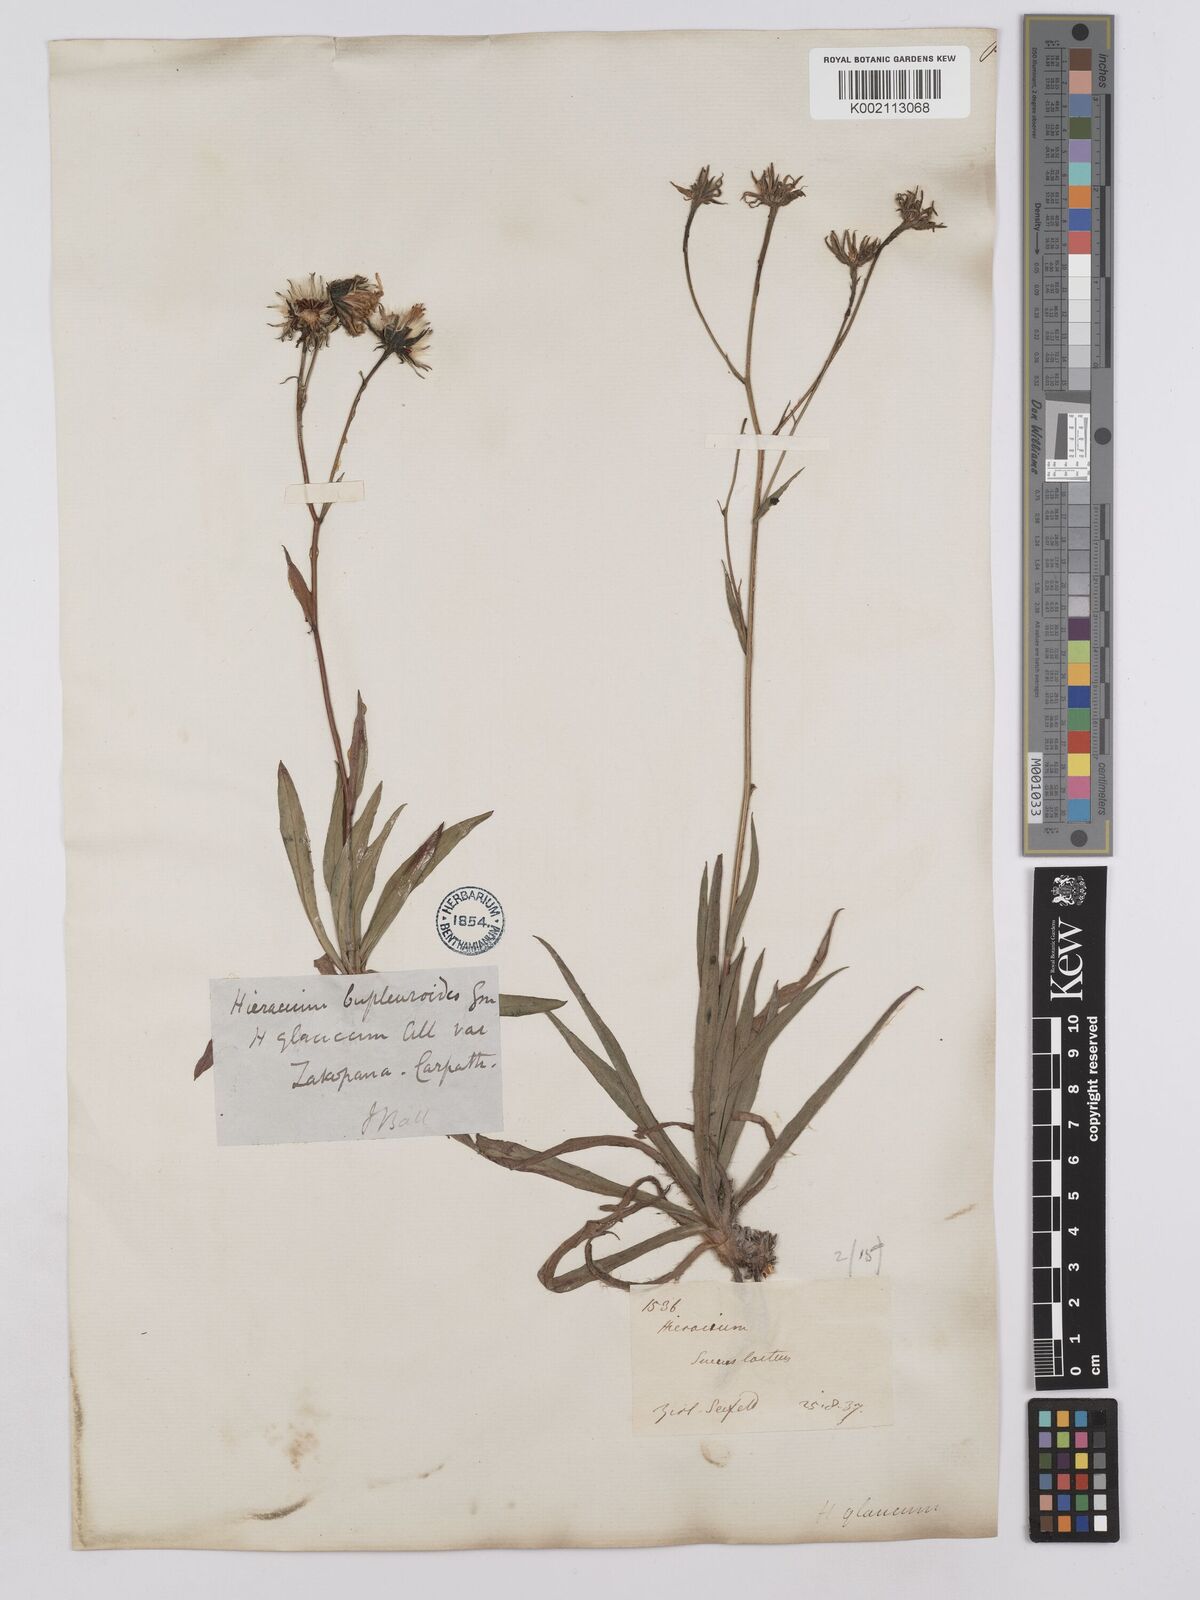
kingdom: Plantae
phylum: Tracheophyta
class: Magnoliopsida
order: Asterales
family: Asteraceae
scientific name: Asteraceae
